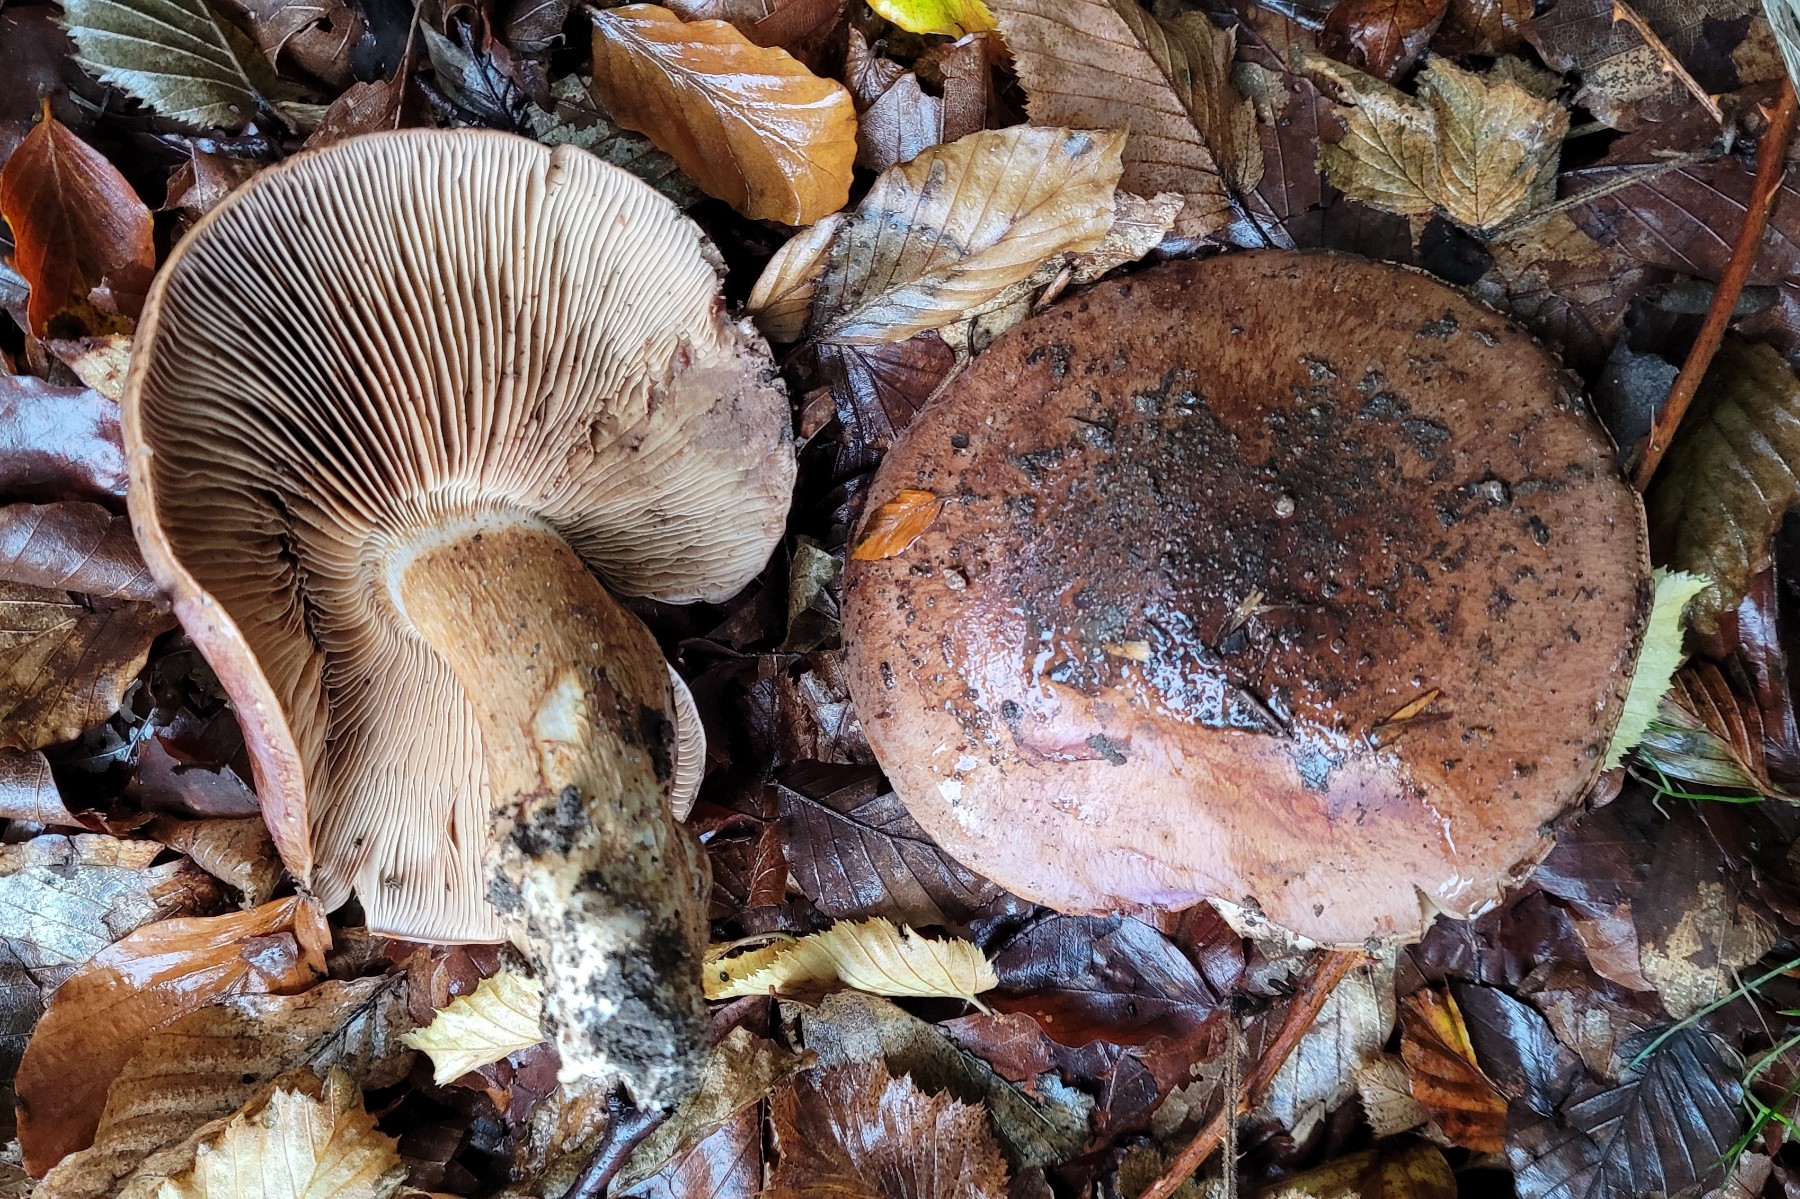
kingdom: Fungi
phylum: Basidiomycota
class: Agaricomycetes
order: Agaricales
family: Cortinariaceae
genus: Phlegmacium
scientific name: Phlegmacium balteatocumatile
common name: violettrådet slørhat
